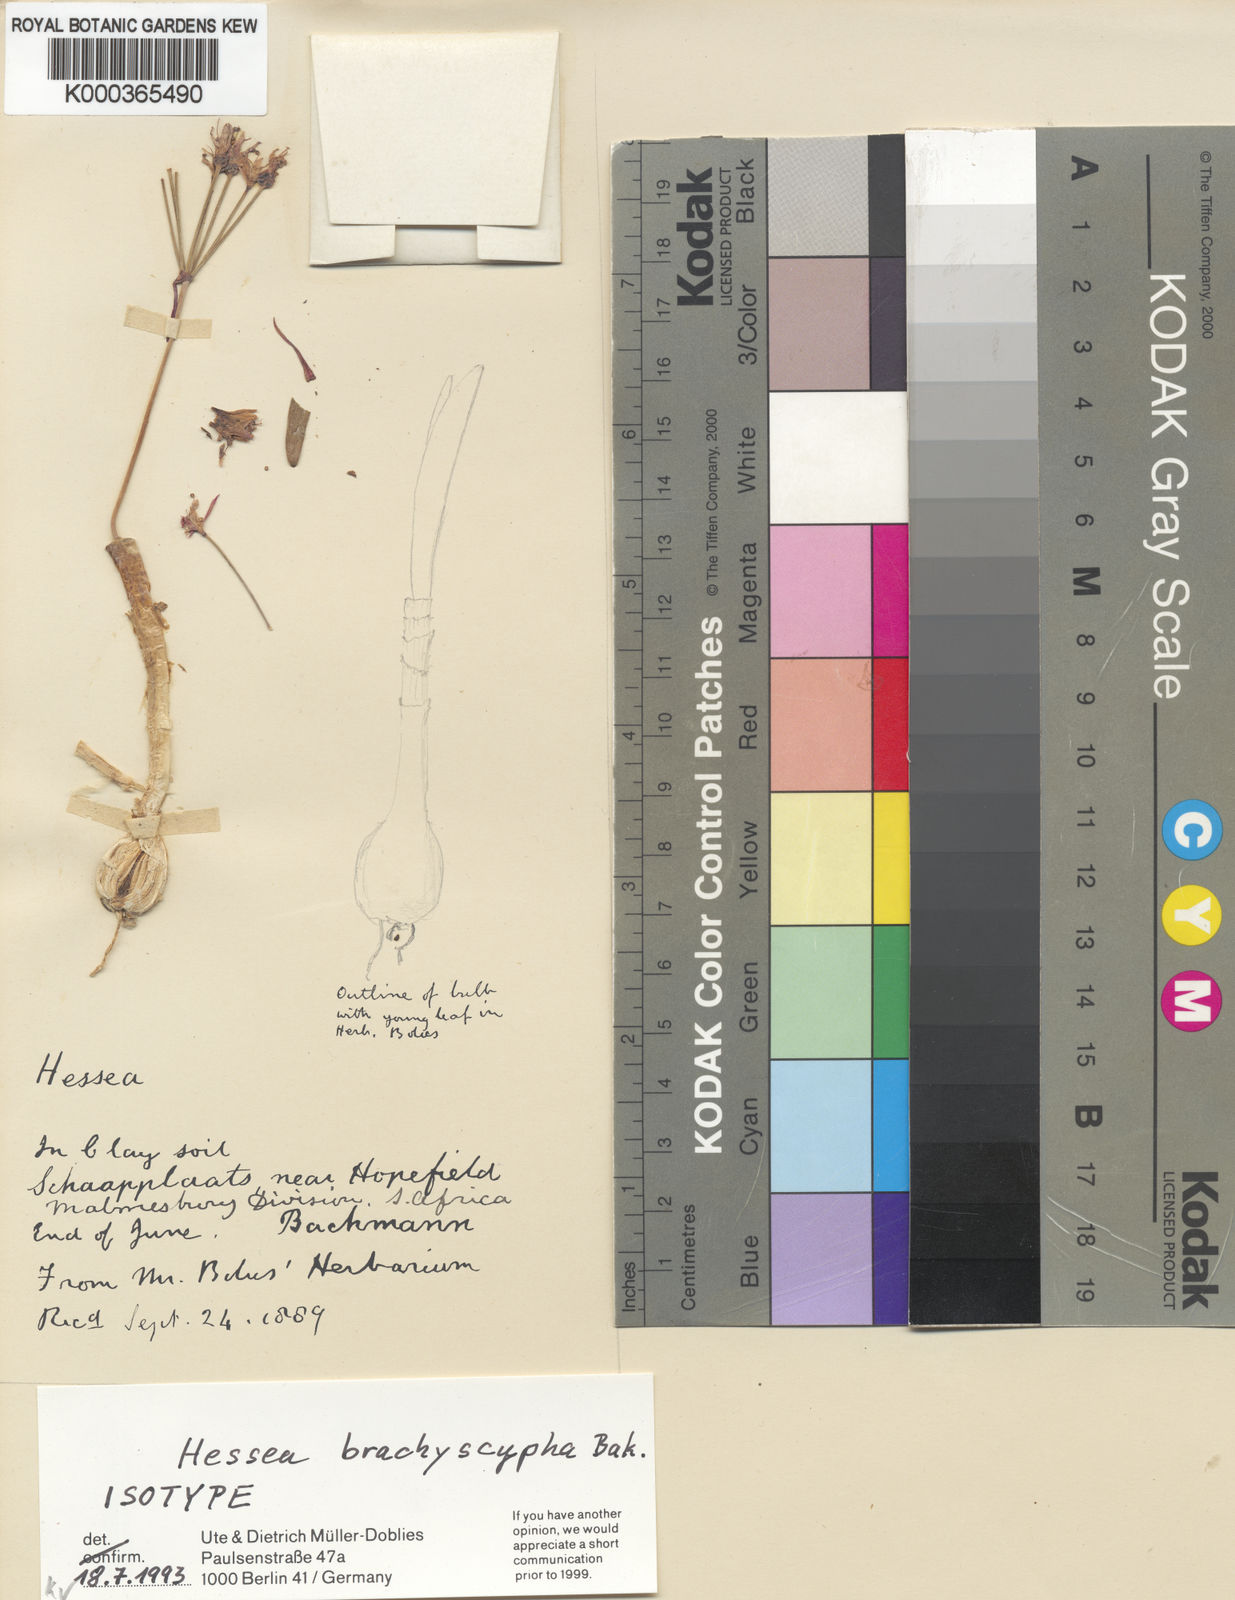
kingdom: Plantae
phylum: Tracheophyta
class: Liliopsida
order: Asparagales
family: Amaryllidaceae
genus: Hessea
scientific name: Hessea breviflora
